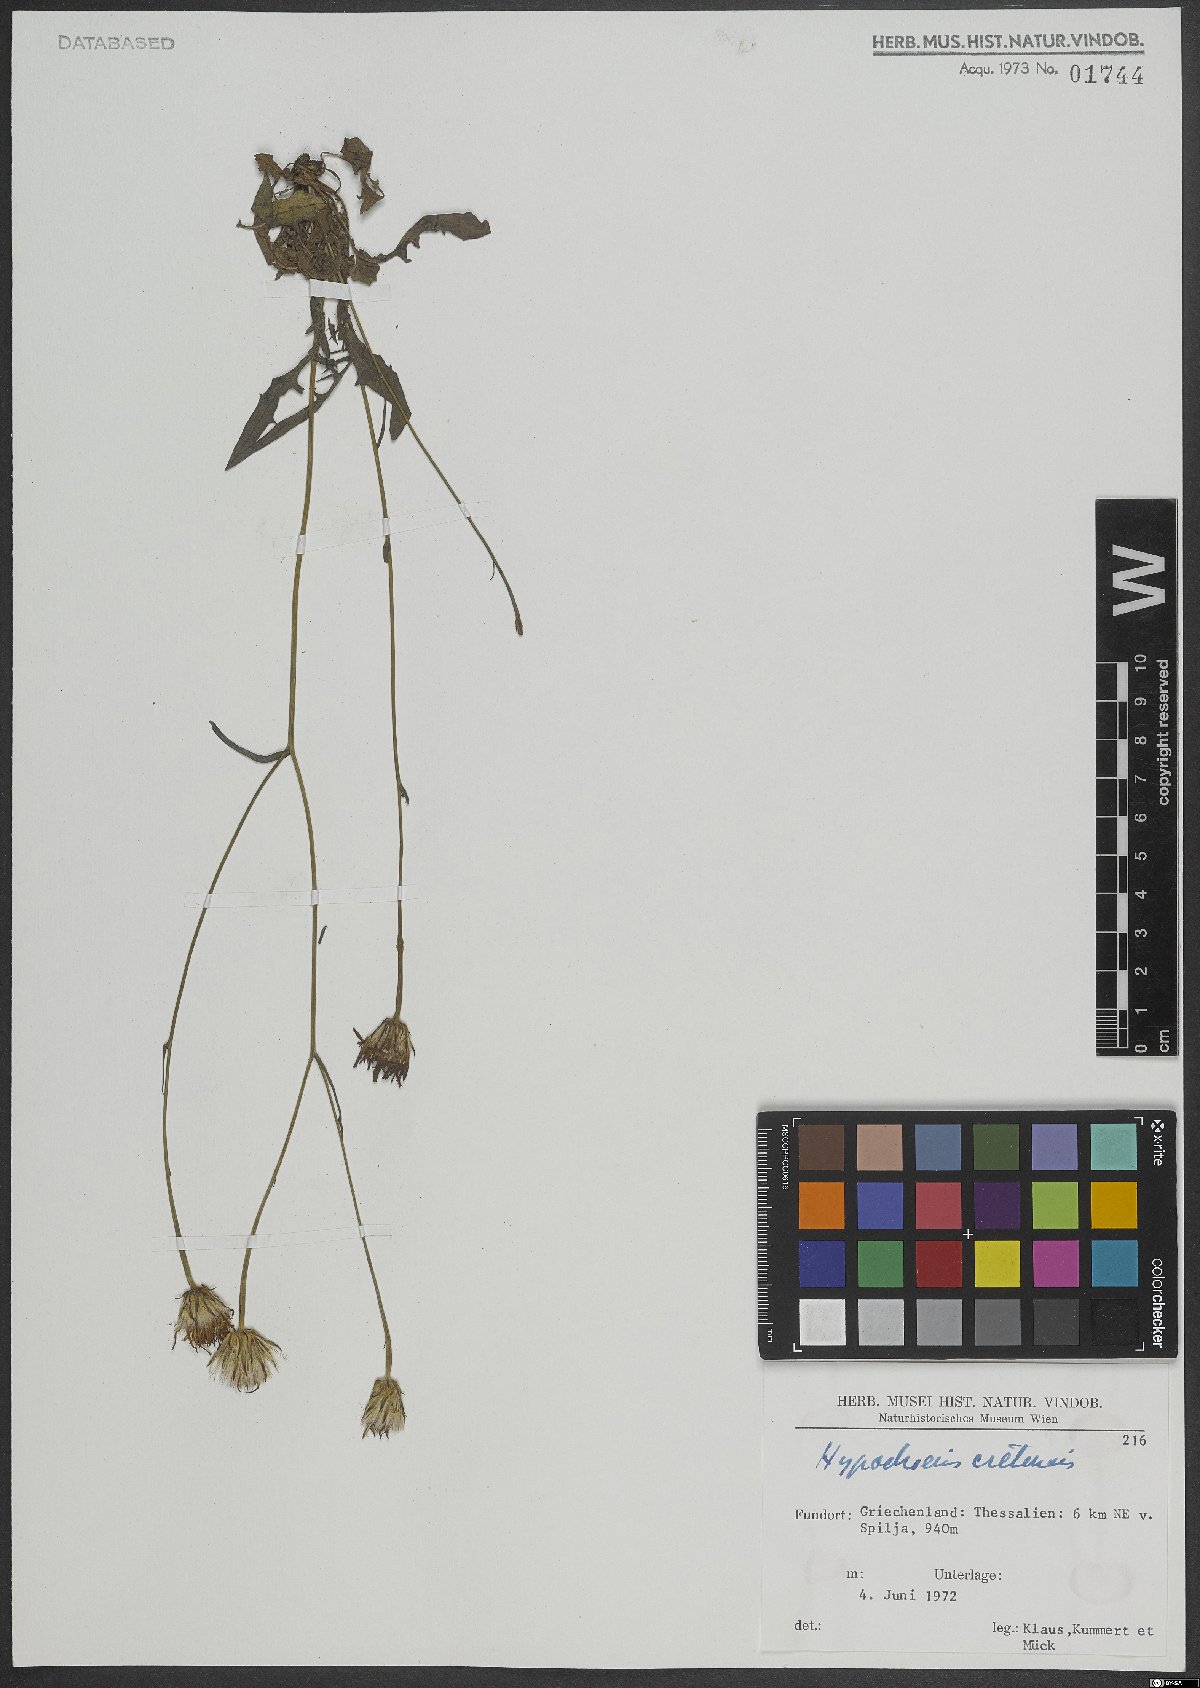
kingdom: Plantae
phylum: Tracheophyta
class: Magnoliopsida
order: Asterales
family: Asteraceae
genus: Hypochaeris
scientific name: Hypochaeris cretensis
